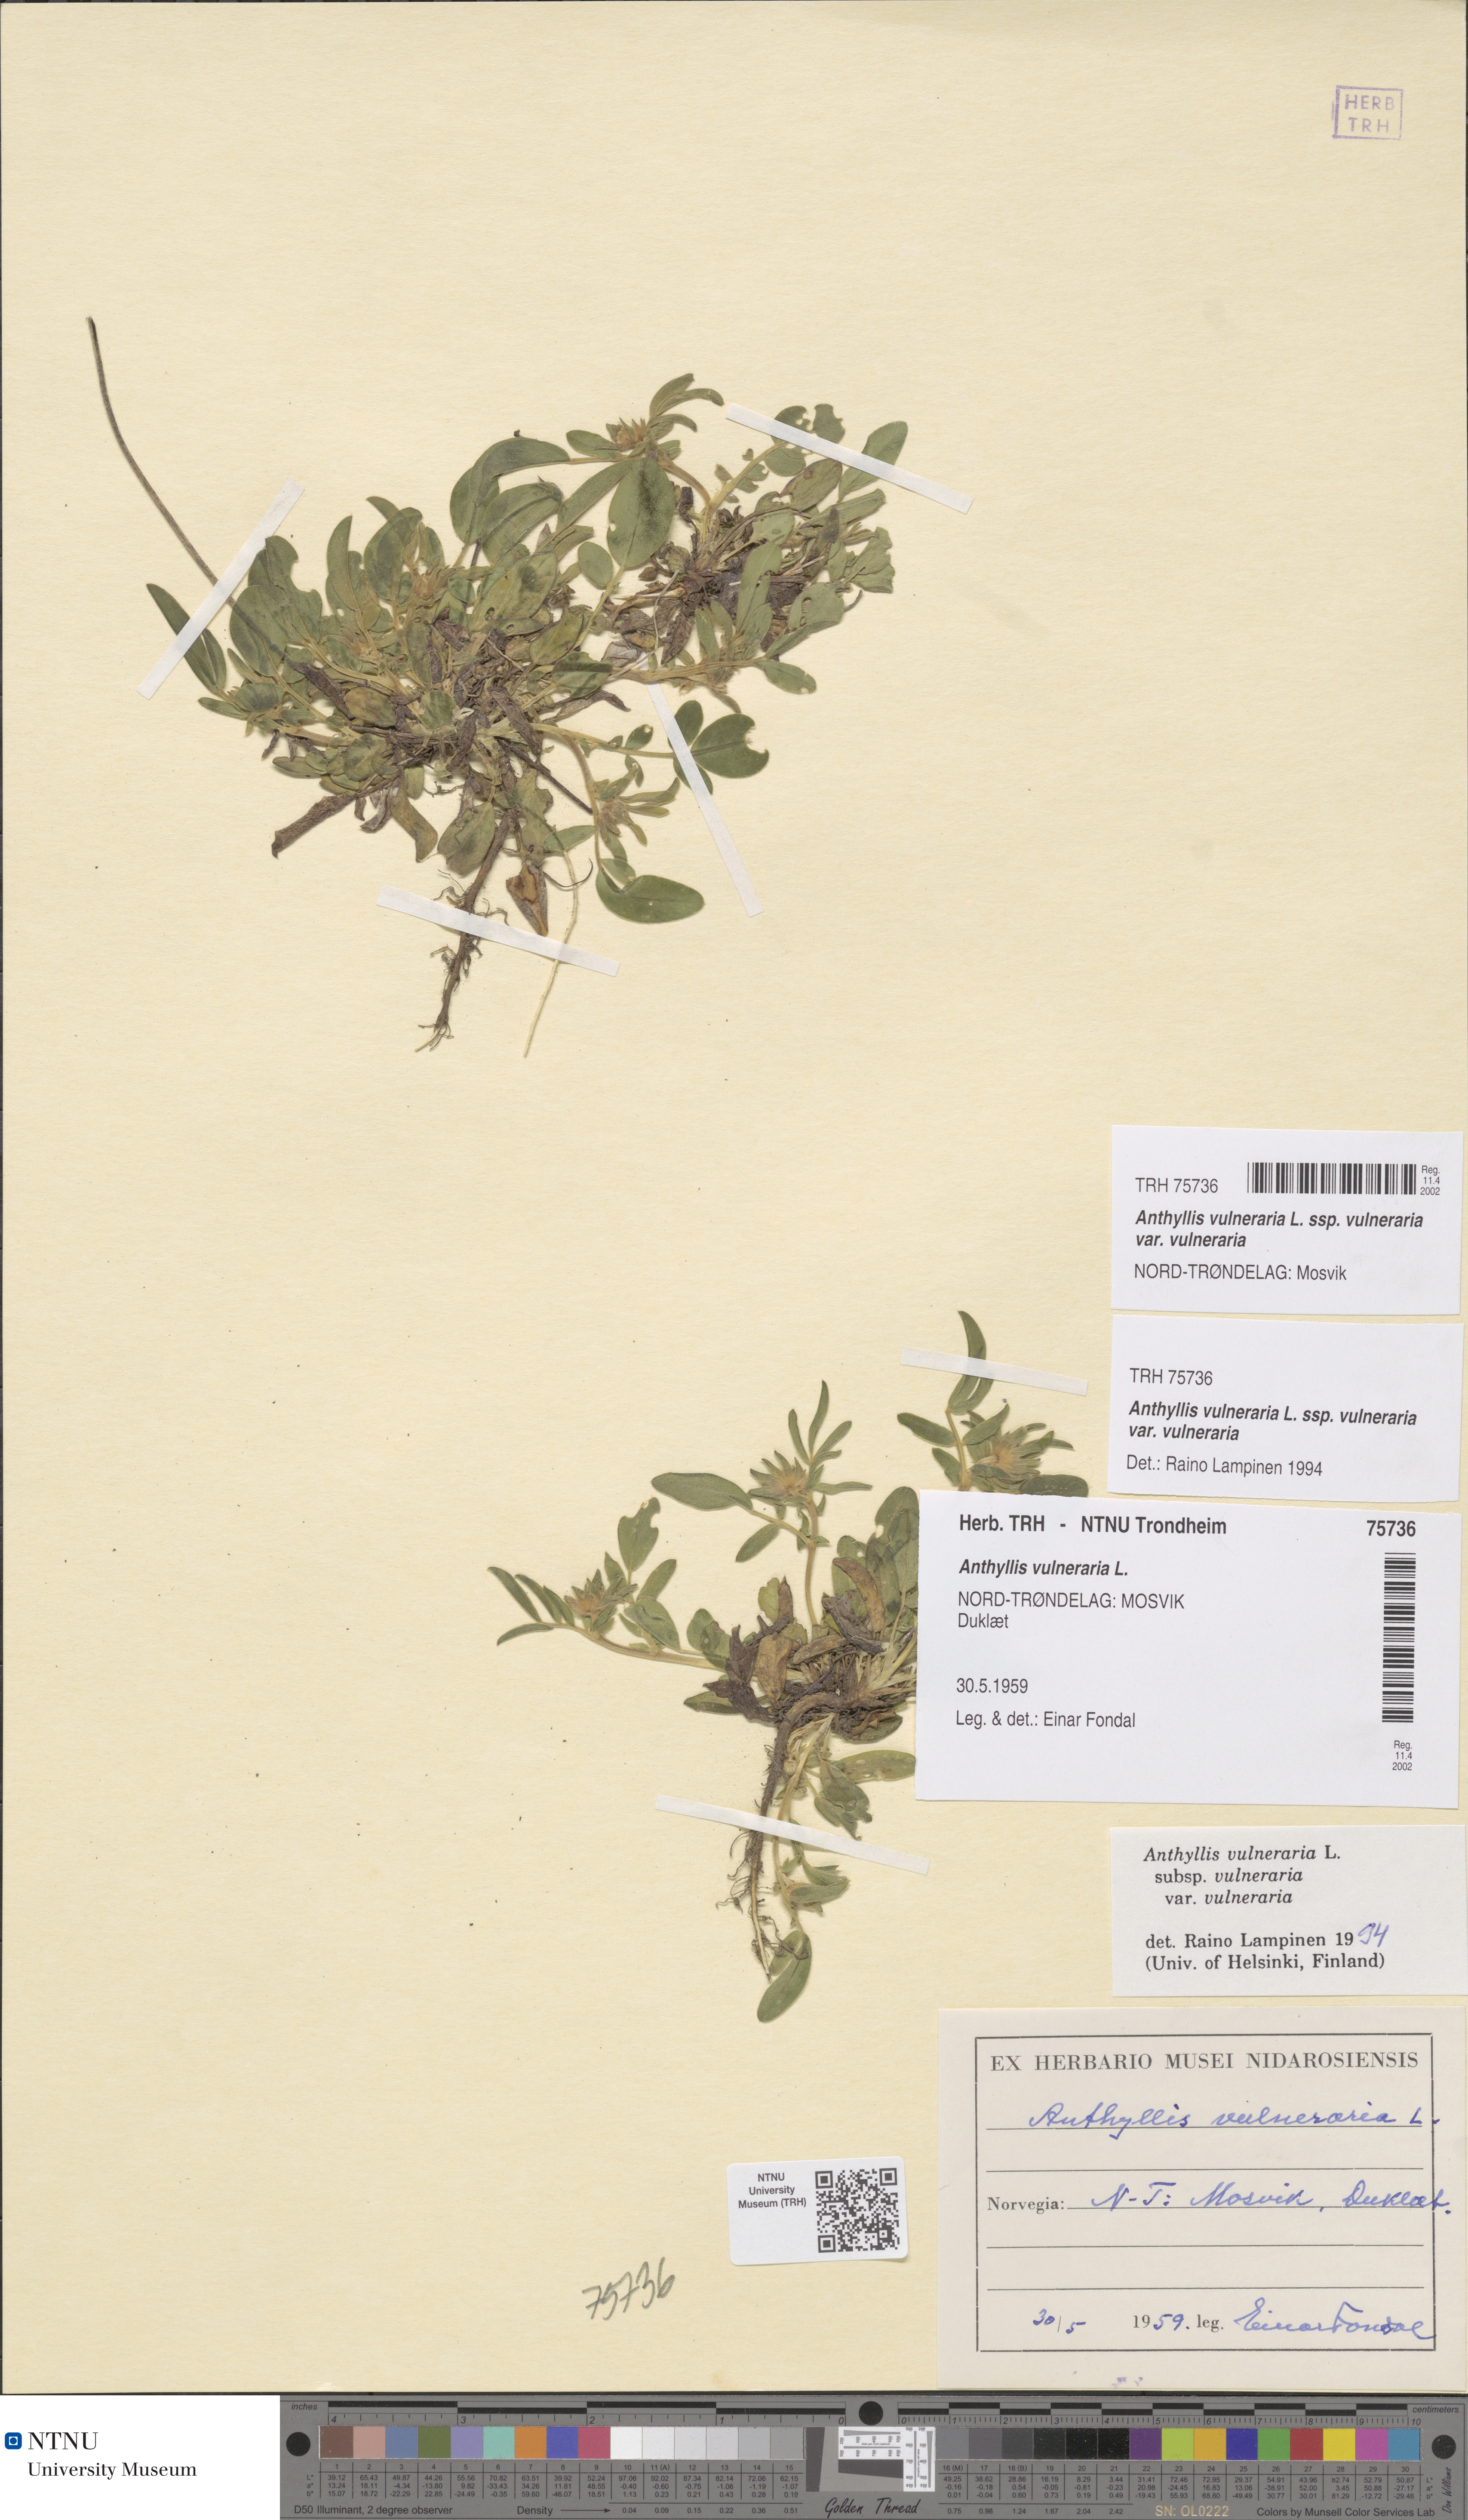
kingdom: Plantae
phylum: Tracheophyta
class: Magnoliopsida
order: Fabales
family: Fabaceae
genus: Anthyllis
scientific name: Anthyllis vulneraria
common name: Kidney vetch
